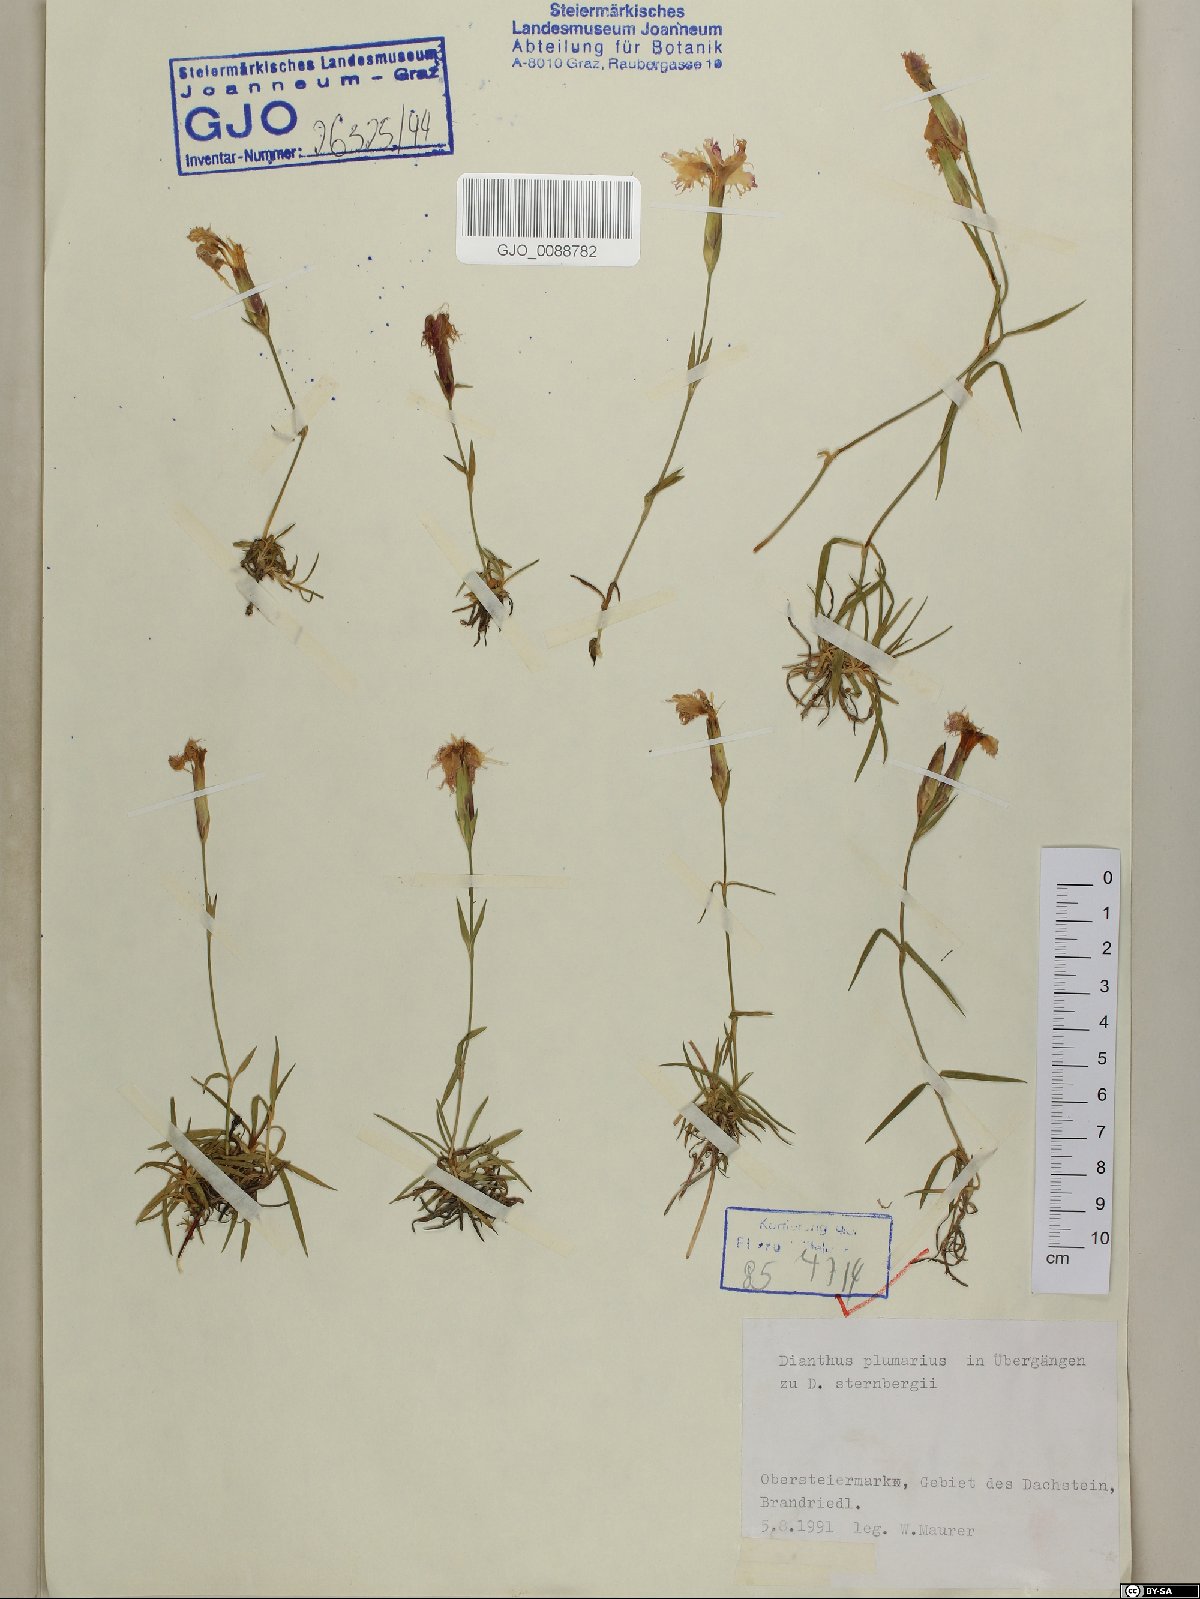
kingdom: Plantae
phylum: Tracheophyta
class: Magnoliopsida
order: Caryophyllales
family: Caryophyllaceae
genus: Dianthus
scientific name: Dianthus plumarius
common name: Pink
